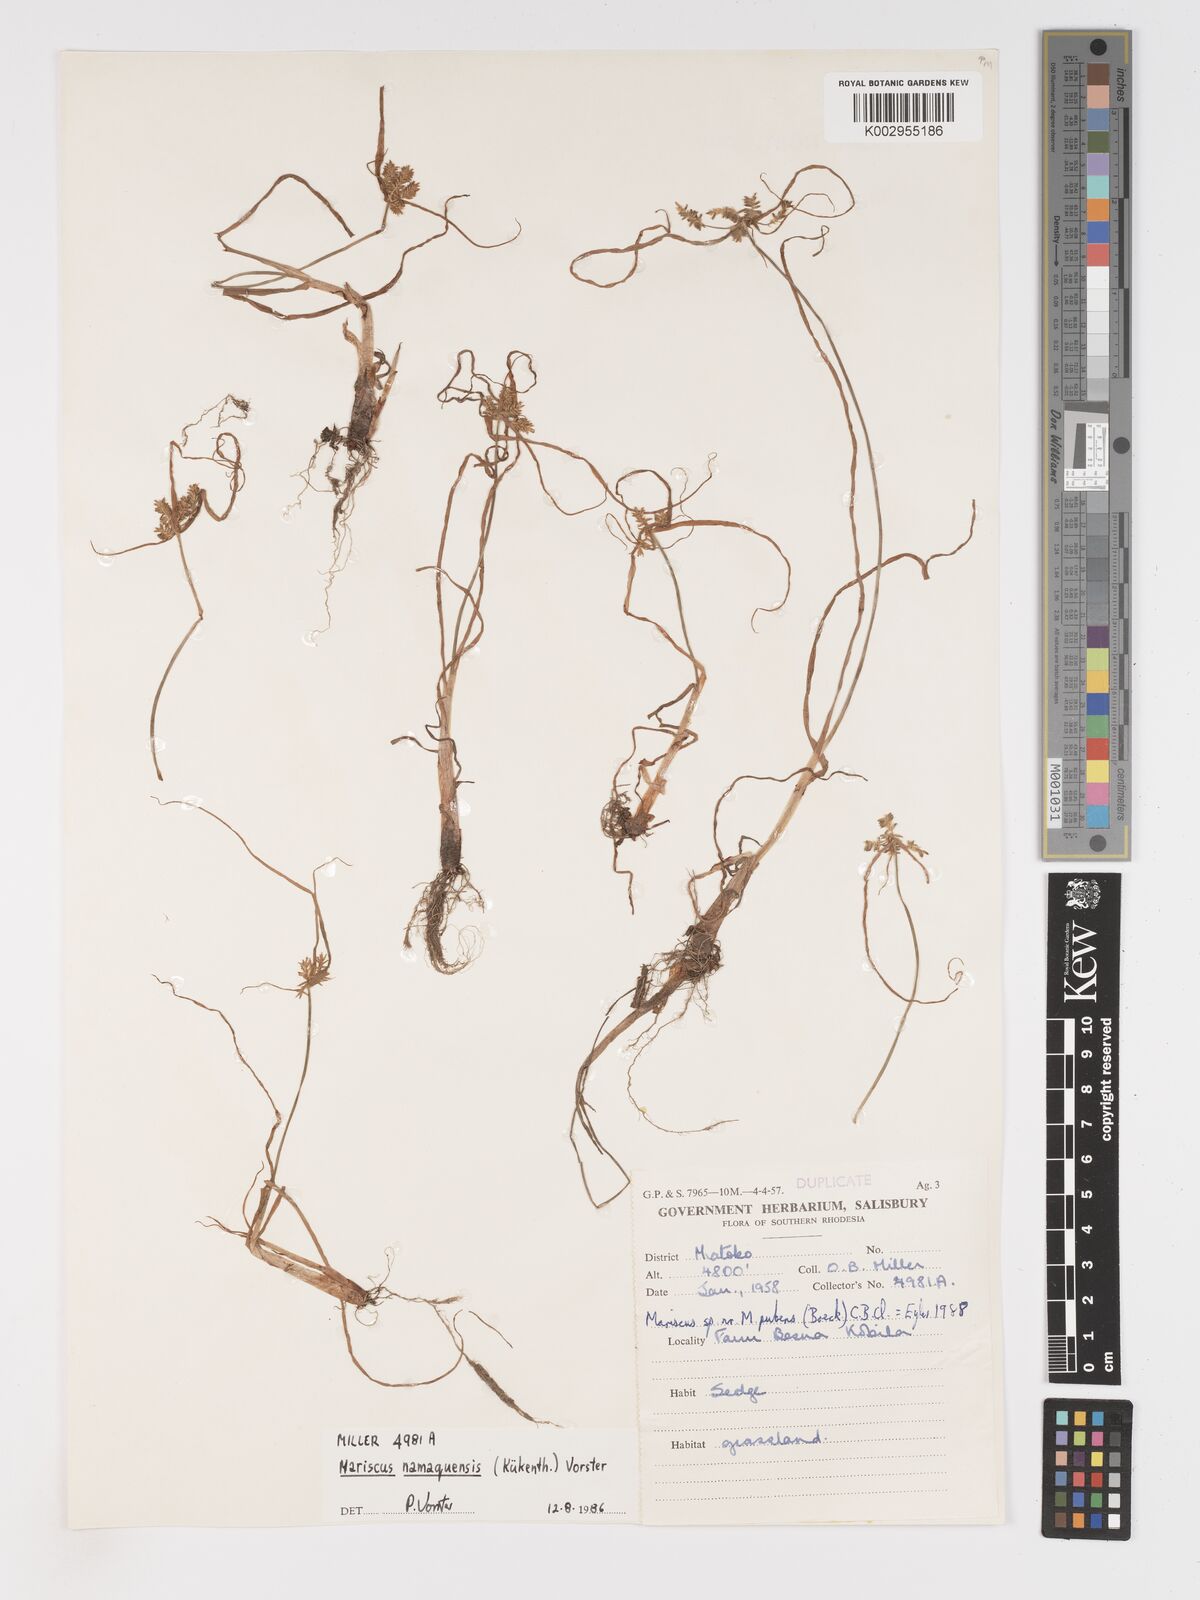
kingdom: Plantae
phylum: Tracheophyta
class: Liliopsida
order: Poales
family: Cyperaceae
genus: Cyperus
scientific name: Cyperus
